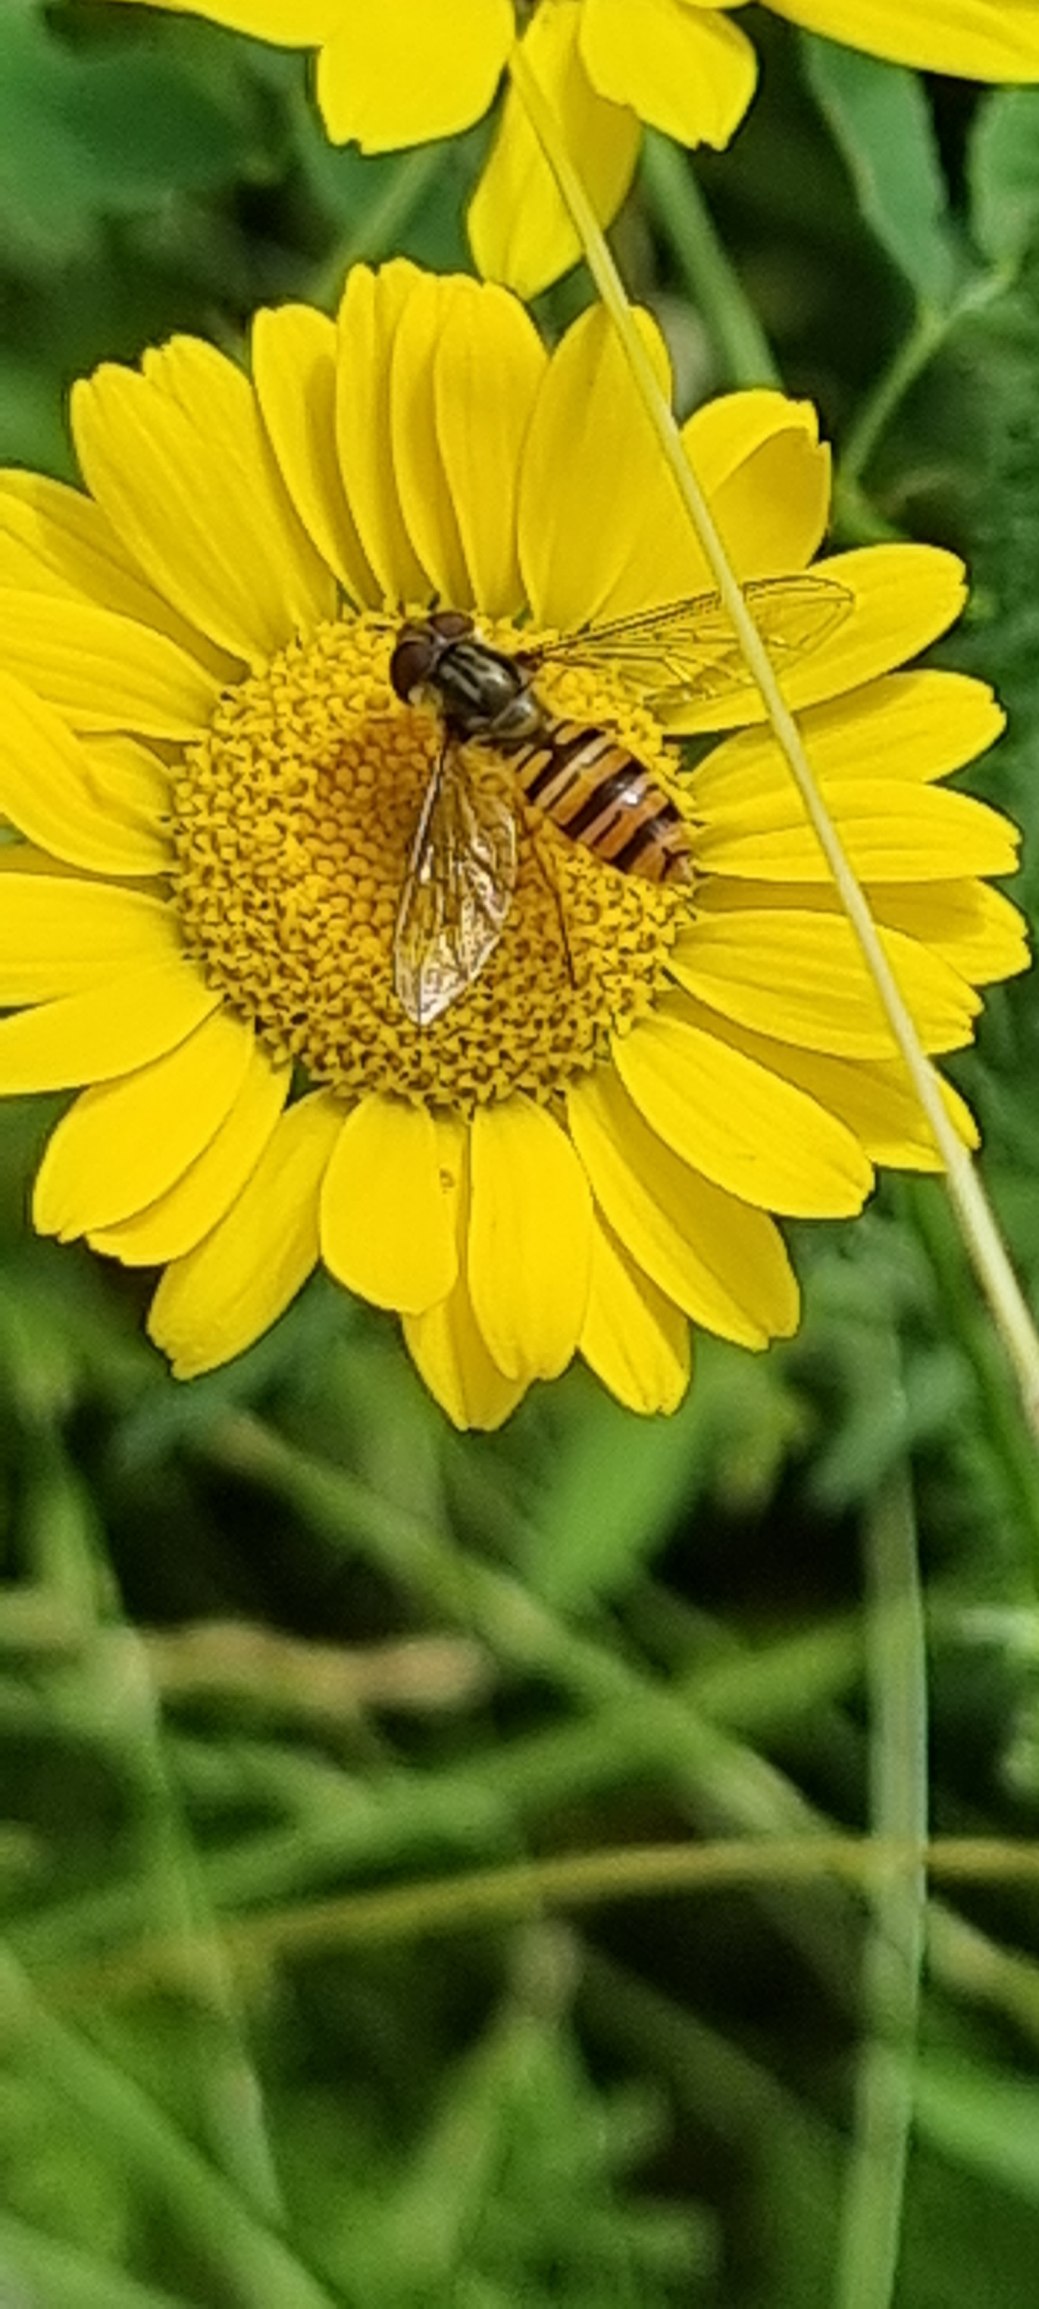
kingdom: Animalia
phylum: Arthropoda
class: Insecta
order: Diptera
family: Syrphidae
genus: Episyrphus
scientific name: Episyrphus balteatus
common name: Dobbeltbåndet svirreflue
